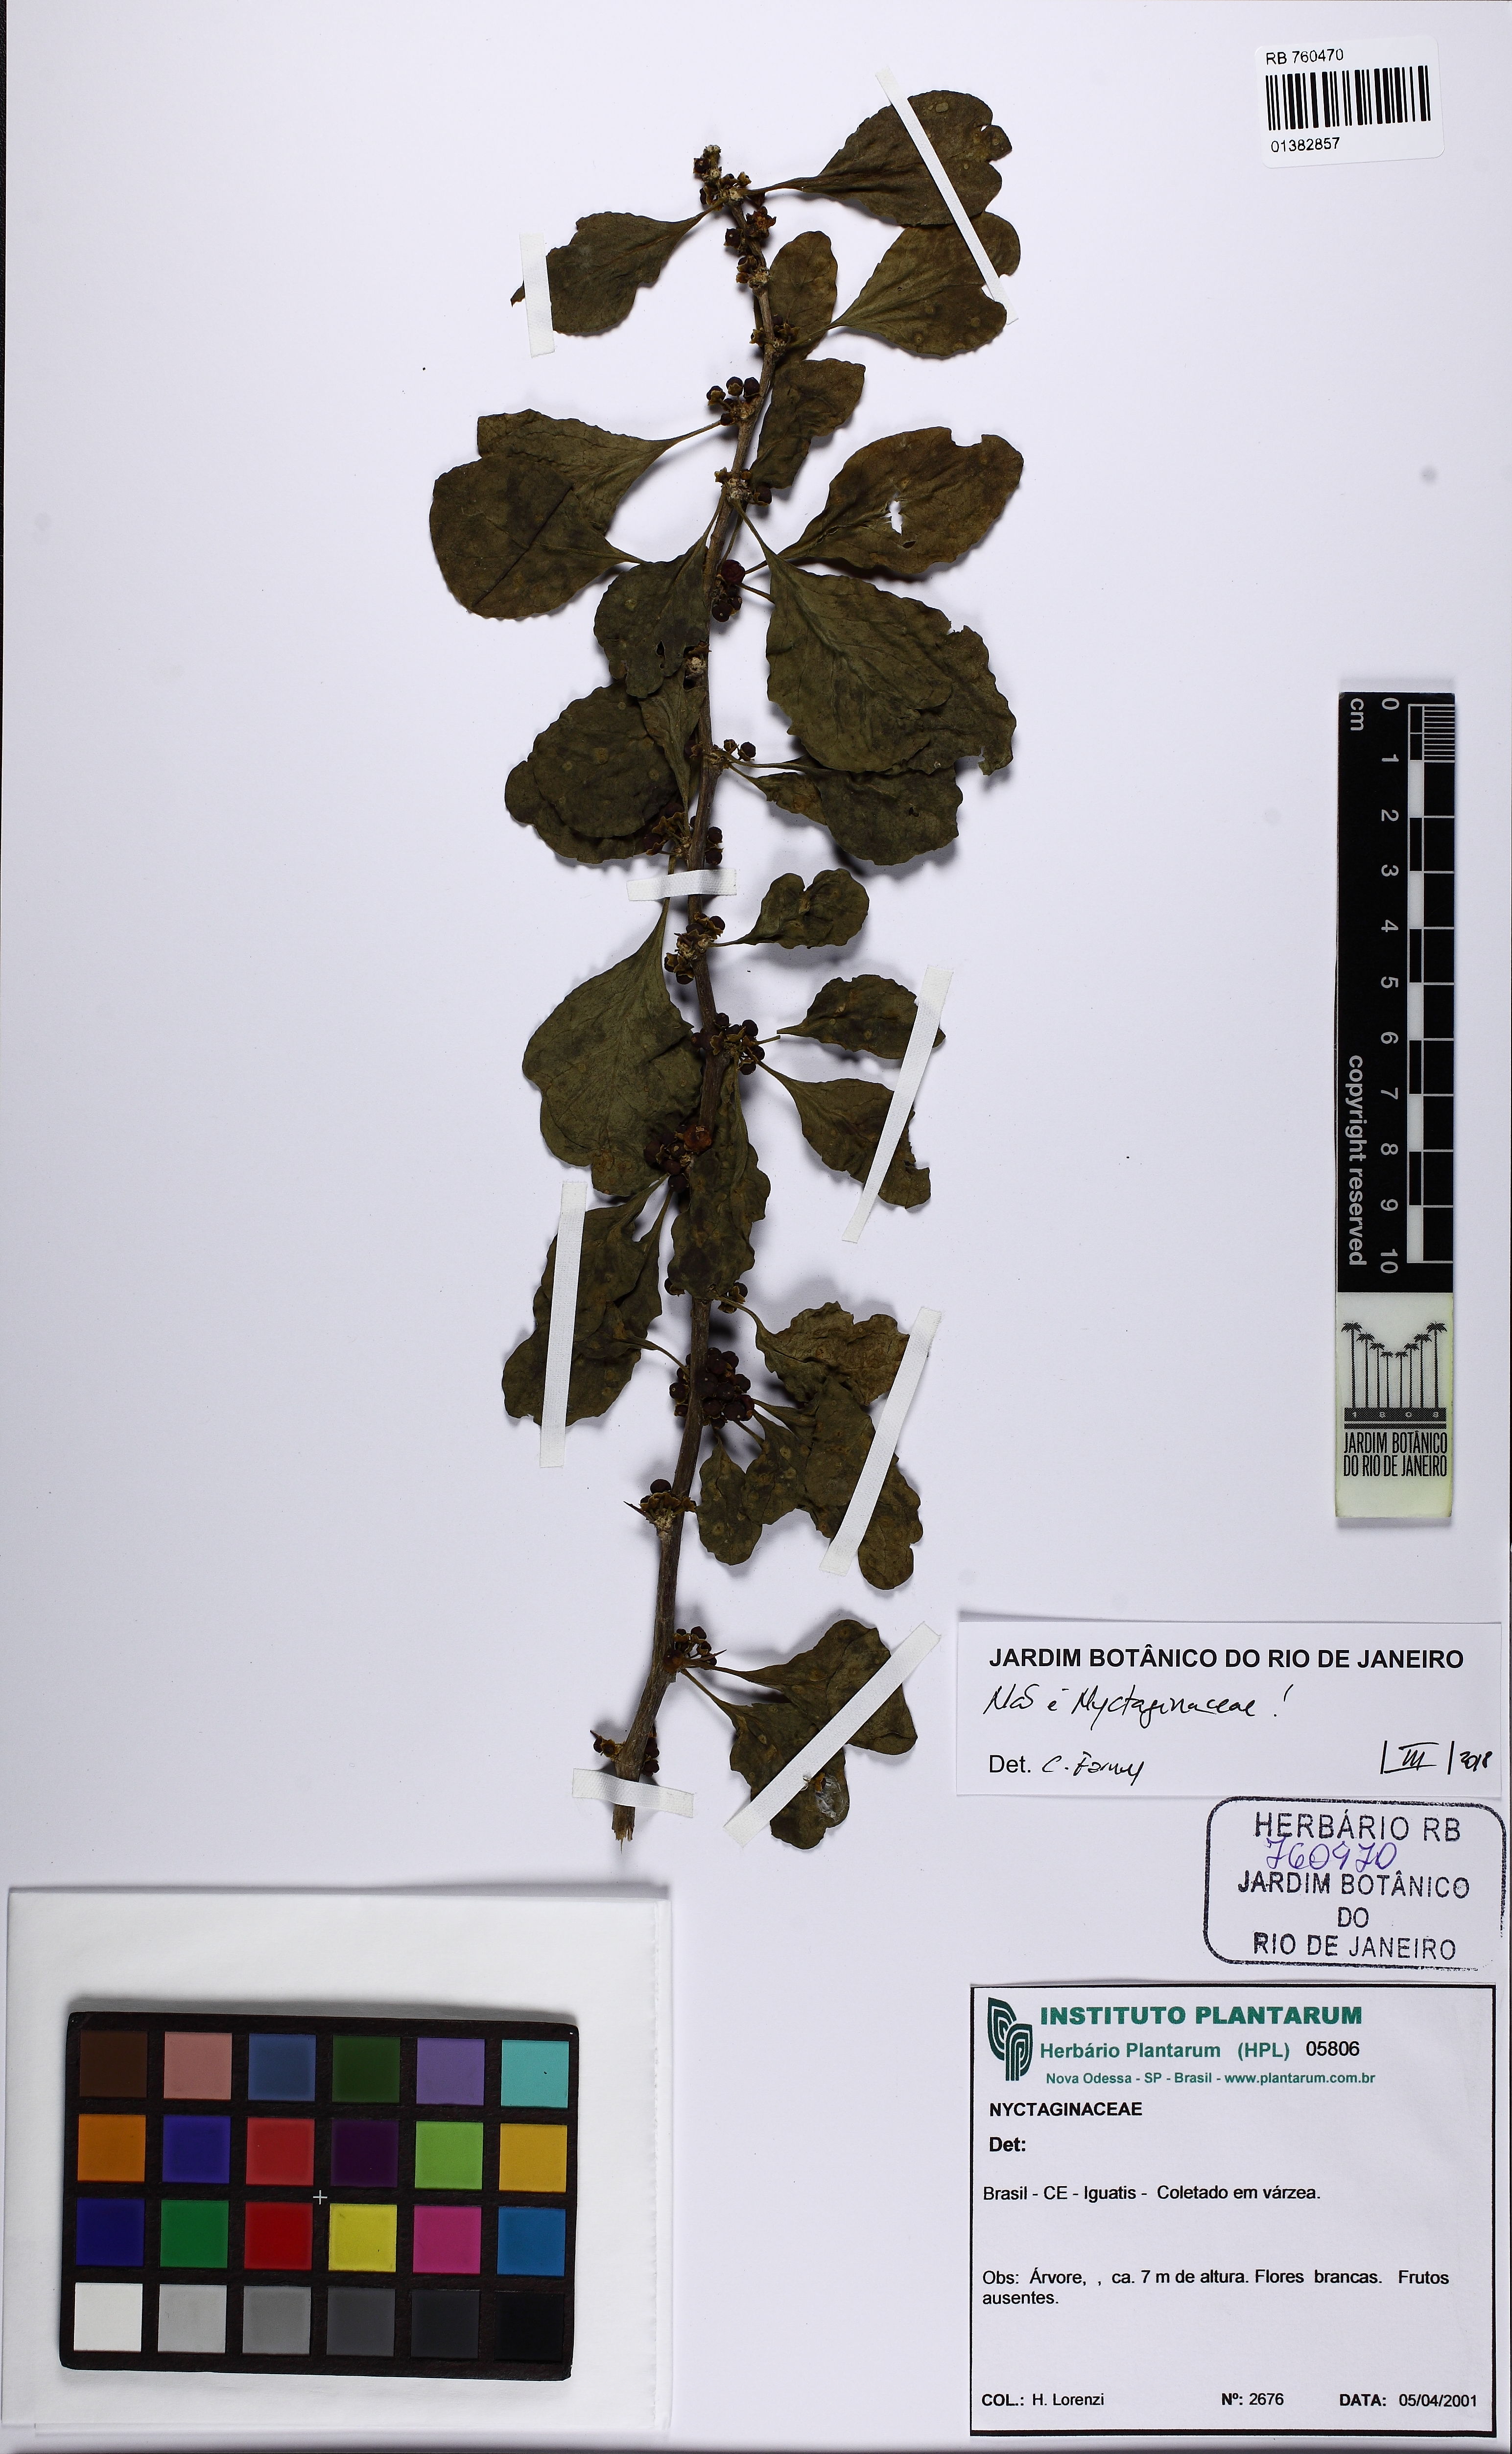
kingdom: Plantae
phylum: Tracheophyta
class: Magnoliopsida
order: Solanales
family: Solanaceae
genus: Lycium
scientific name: Lycium martii
